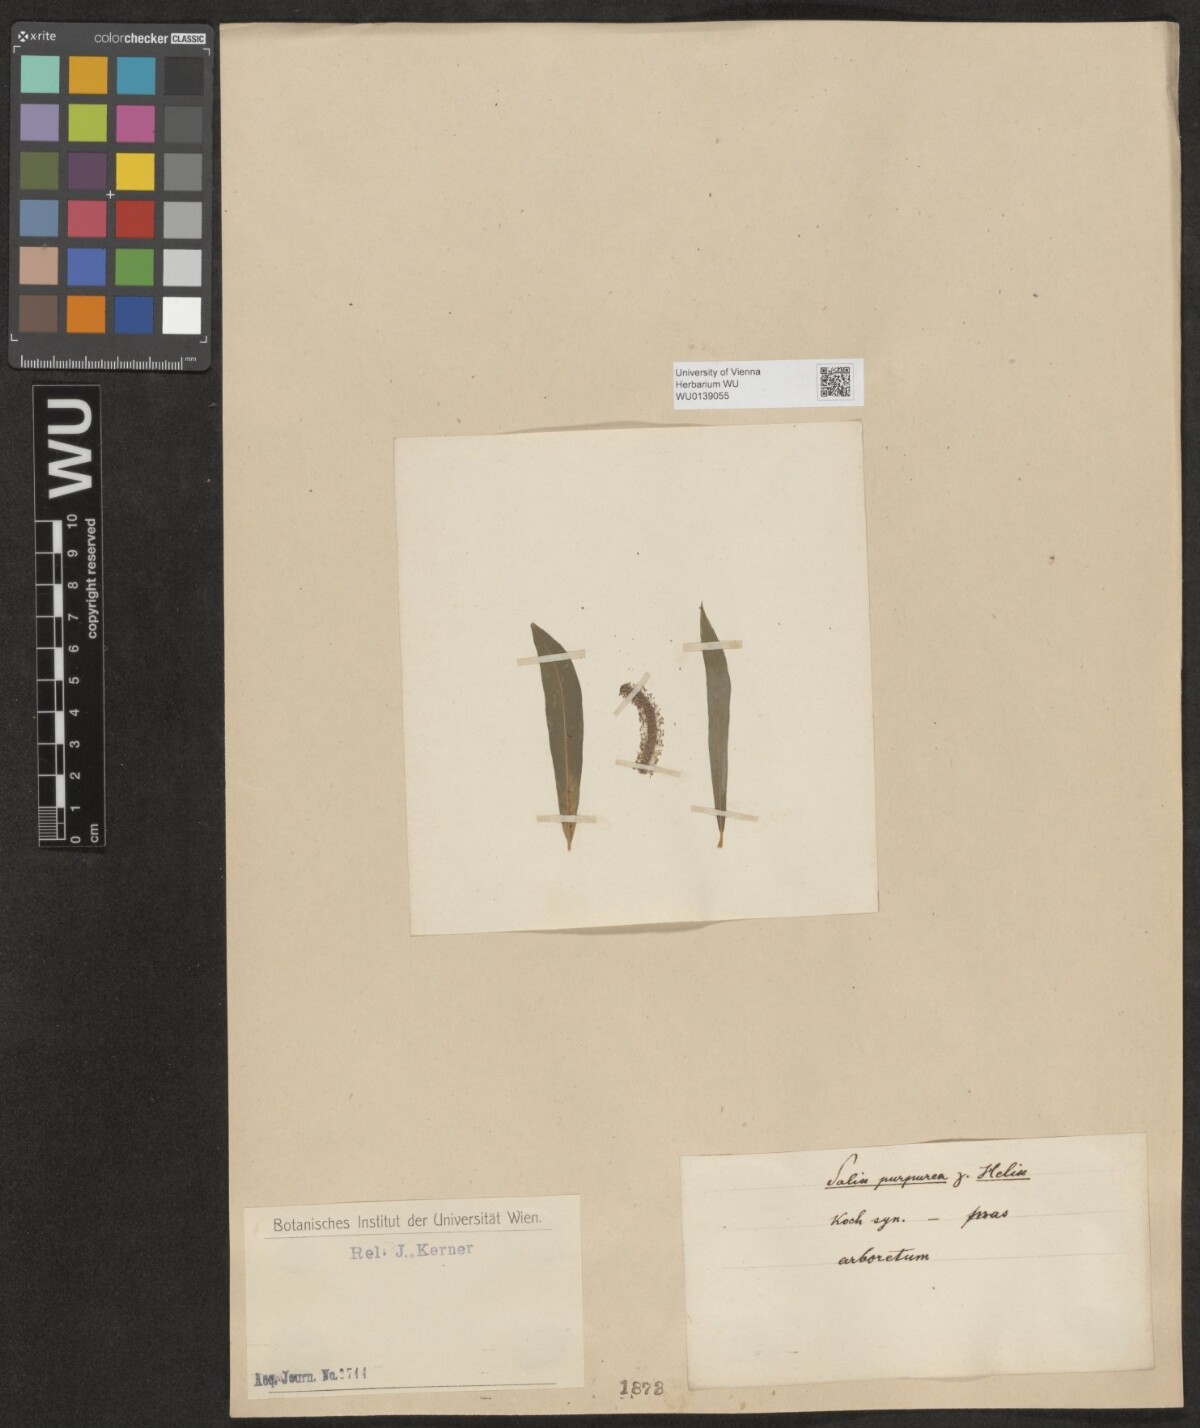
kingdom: Plantae
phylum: Tracheophyta
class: Magnoliopsida
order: Malpighiales
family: Salicaceae
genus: Salix
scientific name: Salix purpurea
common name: Purple willow
